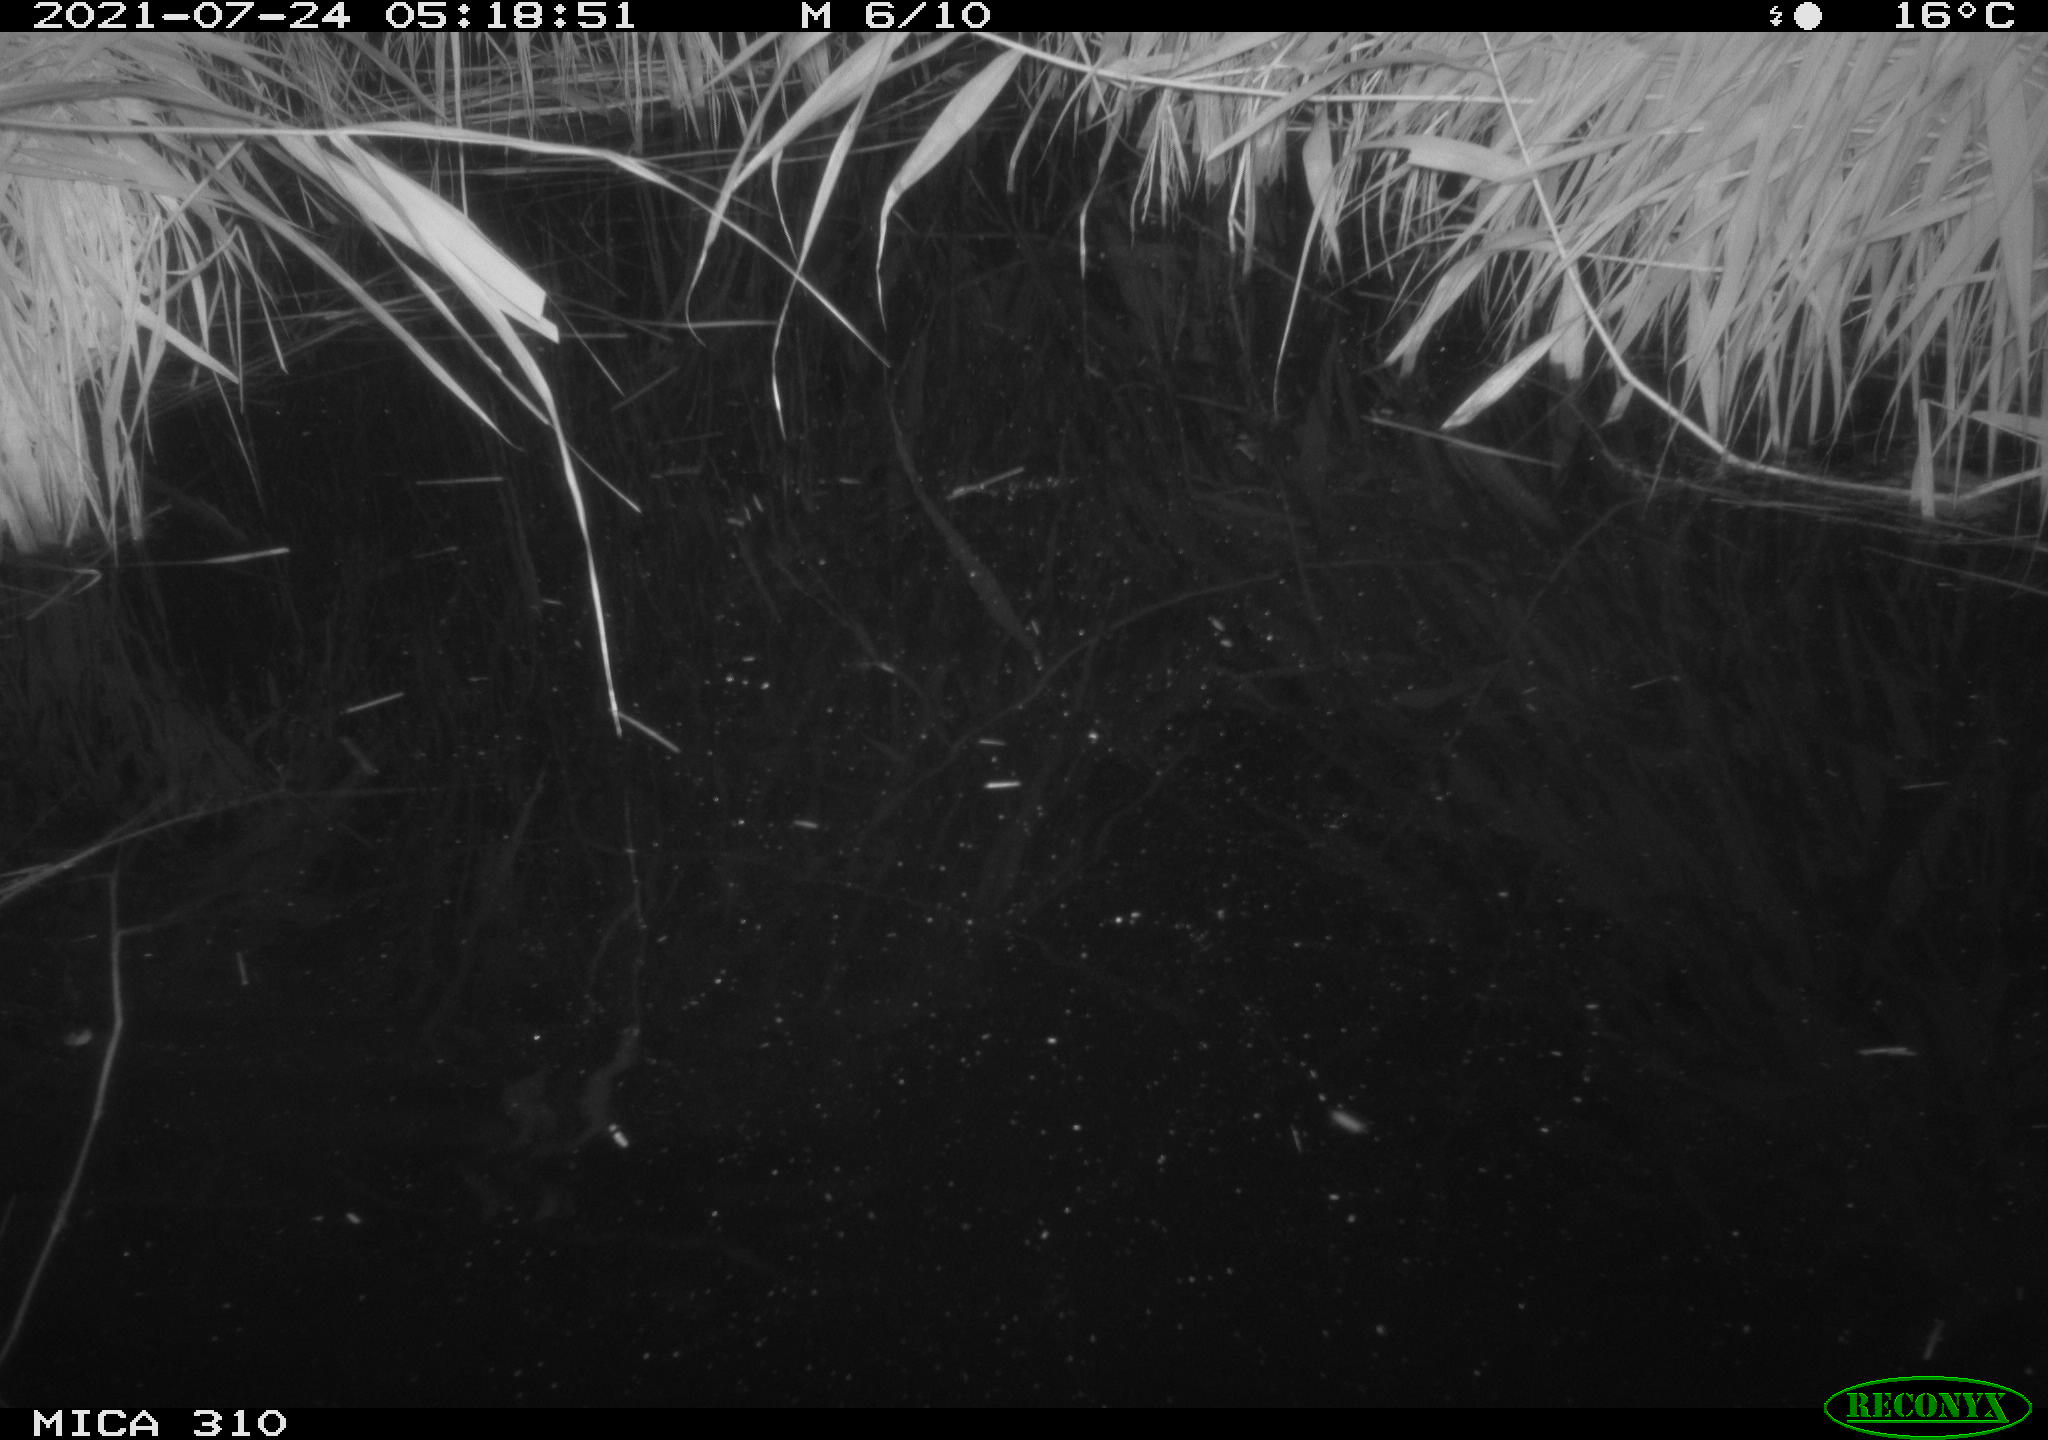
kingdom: Animalia
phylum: Chordata
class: Aves
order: Anseriformes
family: Anatidae
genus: Anas
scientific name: Anas platyrhynchos
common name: Mallard
